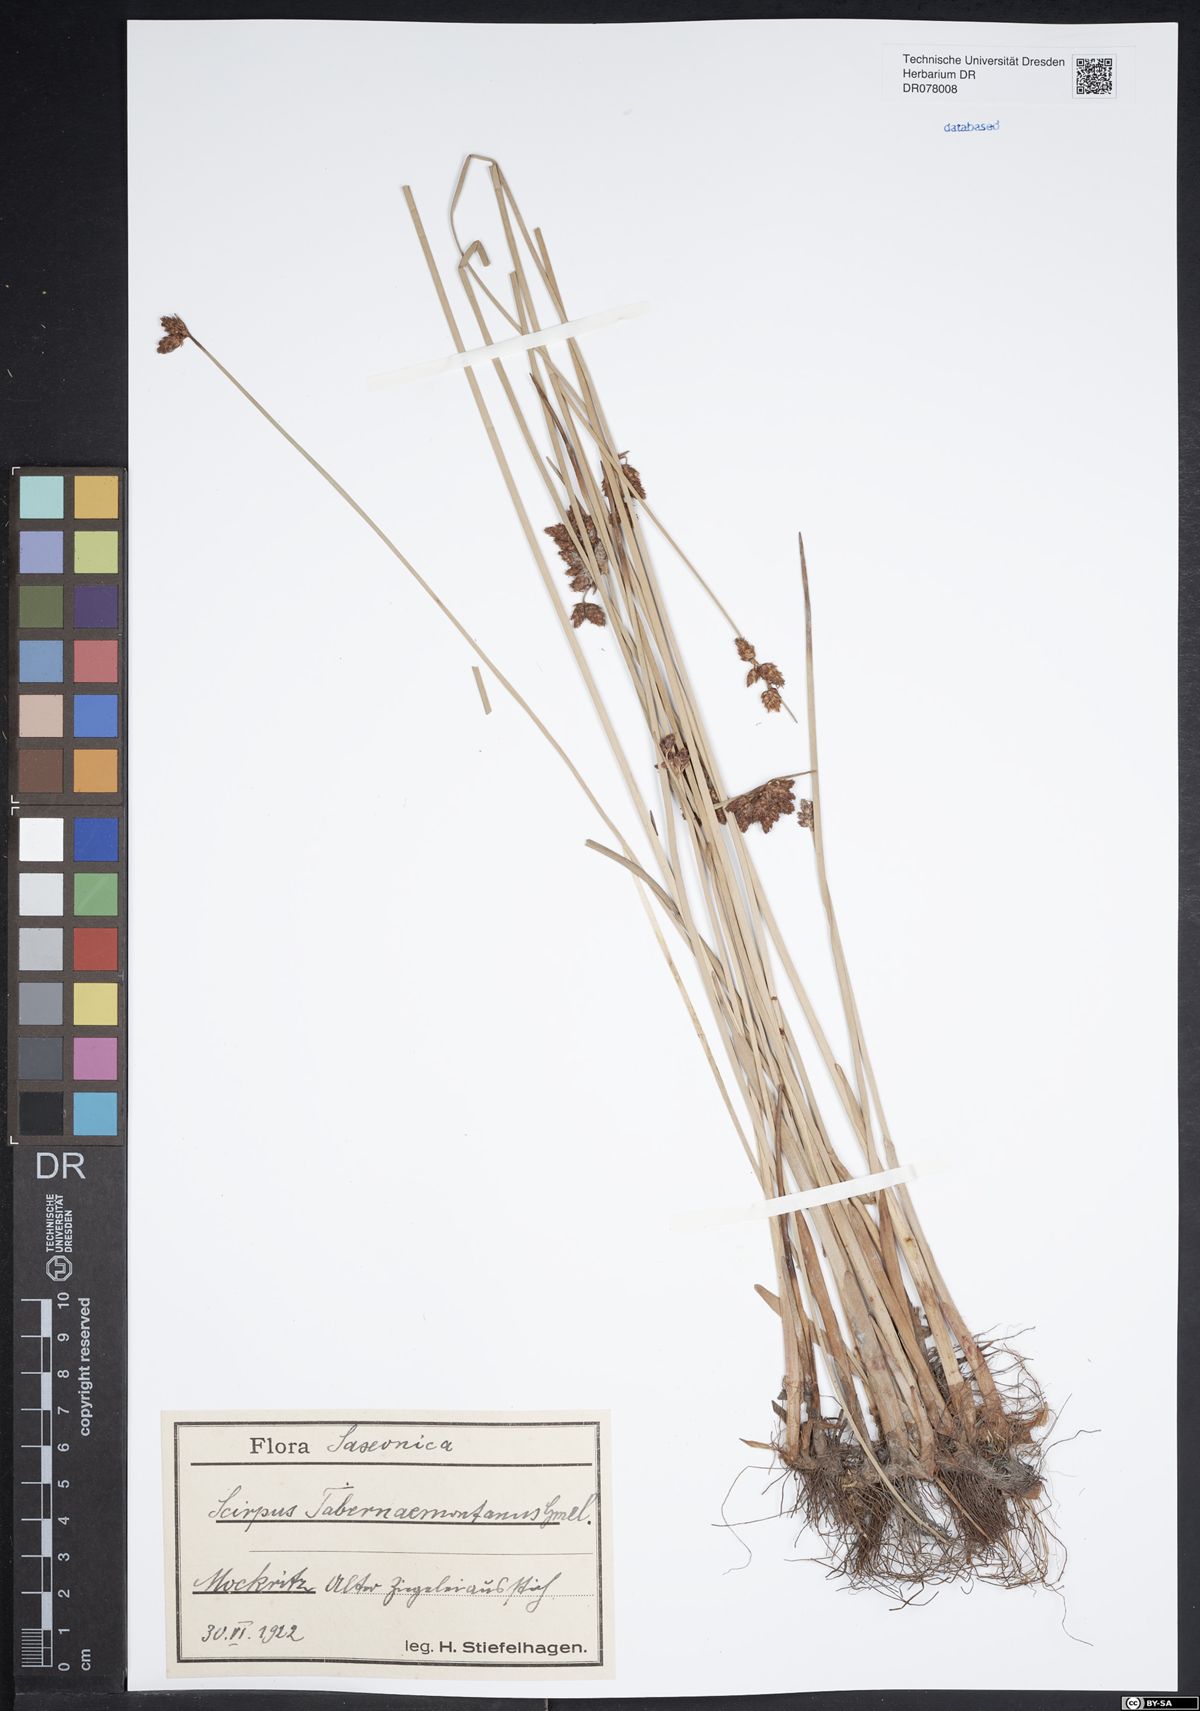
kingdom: Plantae
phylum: Tracheophyta
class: Liliopsida
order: Poales
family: Cyperaceae
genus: Schoenoplectus
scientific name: Schoenoplectus tabernaemontani
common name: Grey club-rush
